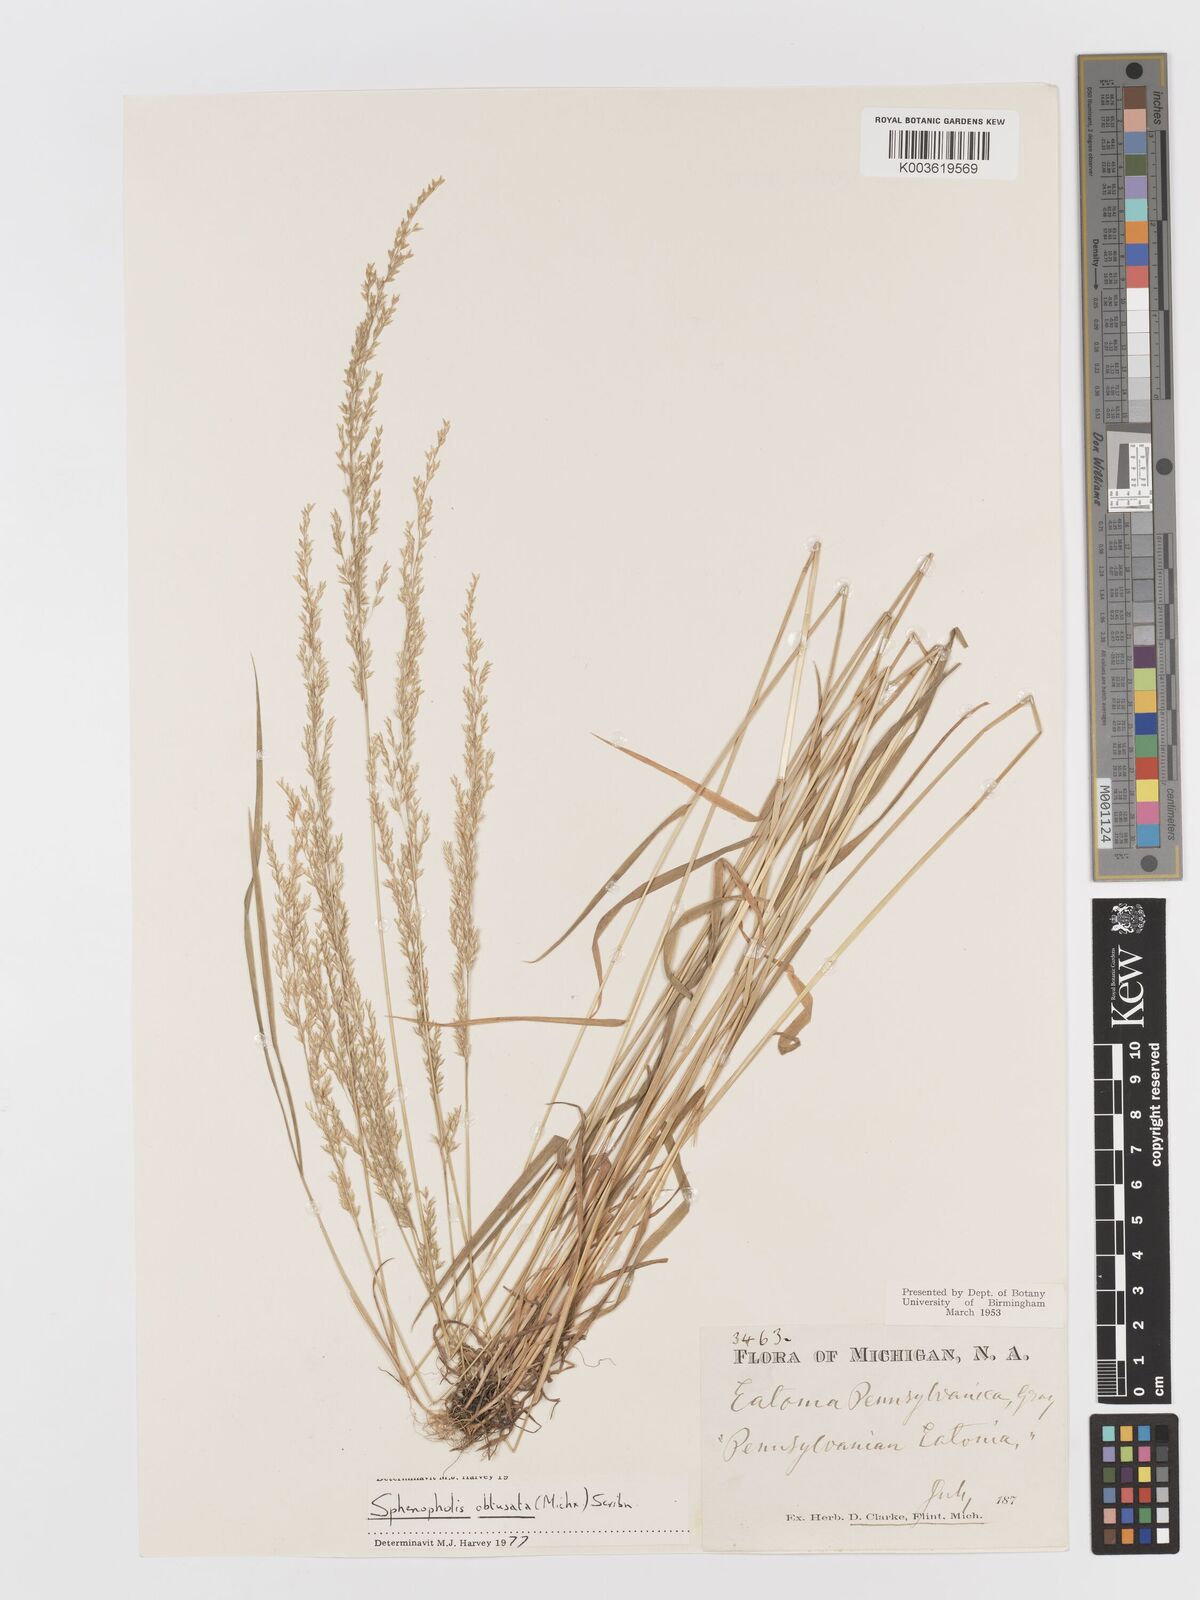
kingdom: Plantae
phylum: Tracheophyta
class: Liliopsida
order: Poales
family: Poaceae
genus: Sphenopholis
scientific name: Sphenopholis obtusata
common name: Prairie grass
